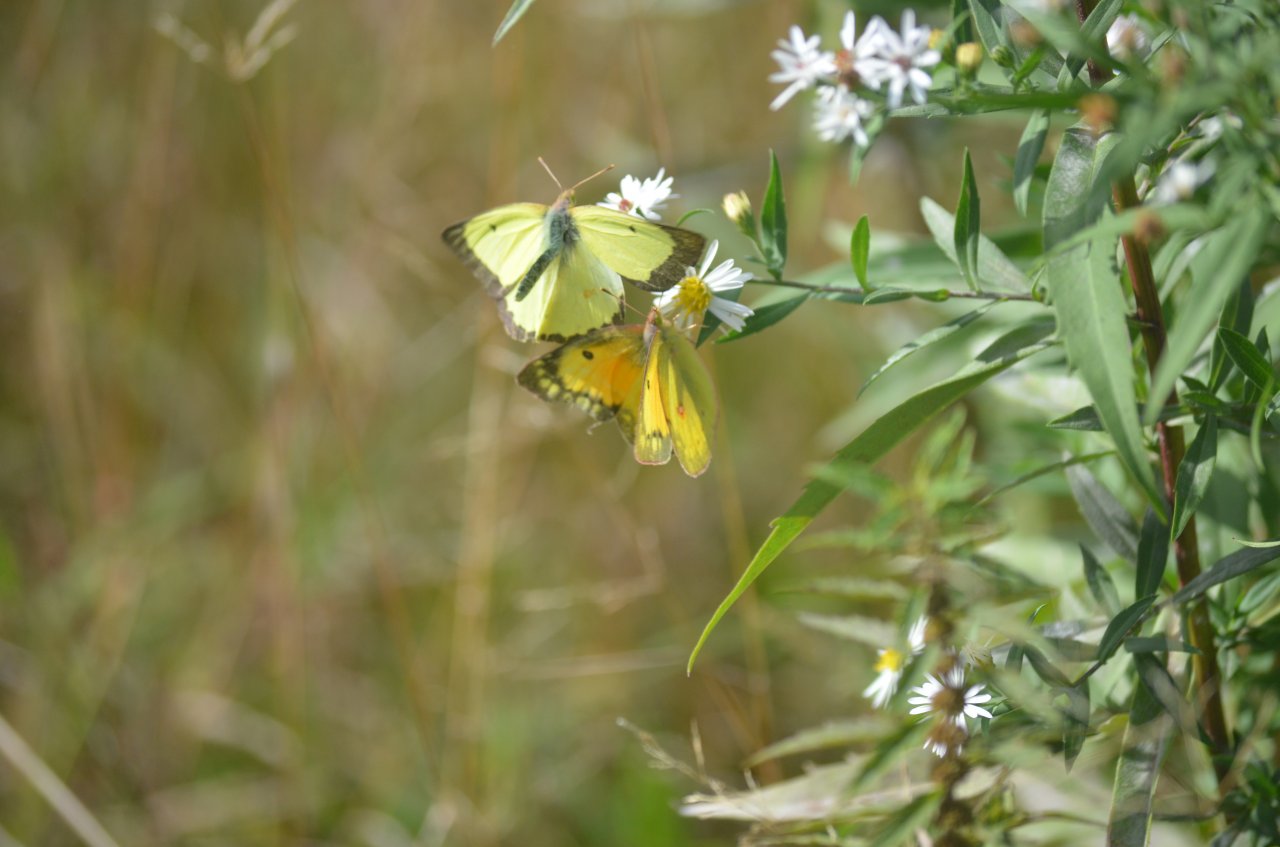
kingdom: Animalia
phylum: Arthropoda
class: Insecta
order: Lepidoptera
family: Pieridae
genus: Colias
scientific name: Colias eurytheme
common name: Orange Sulphur
